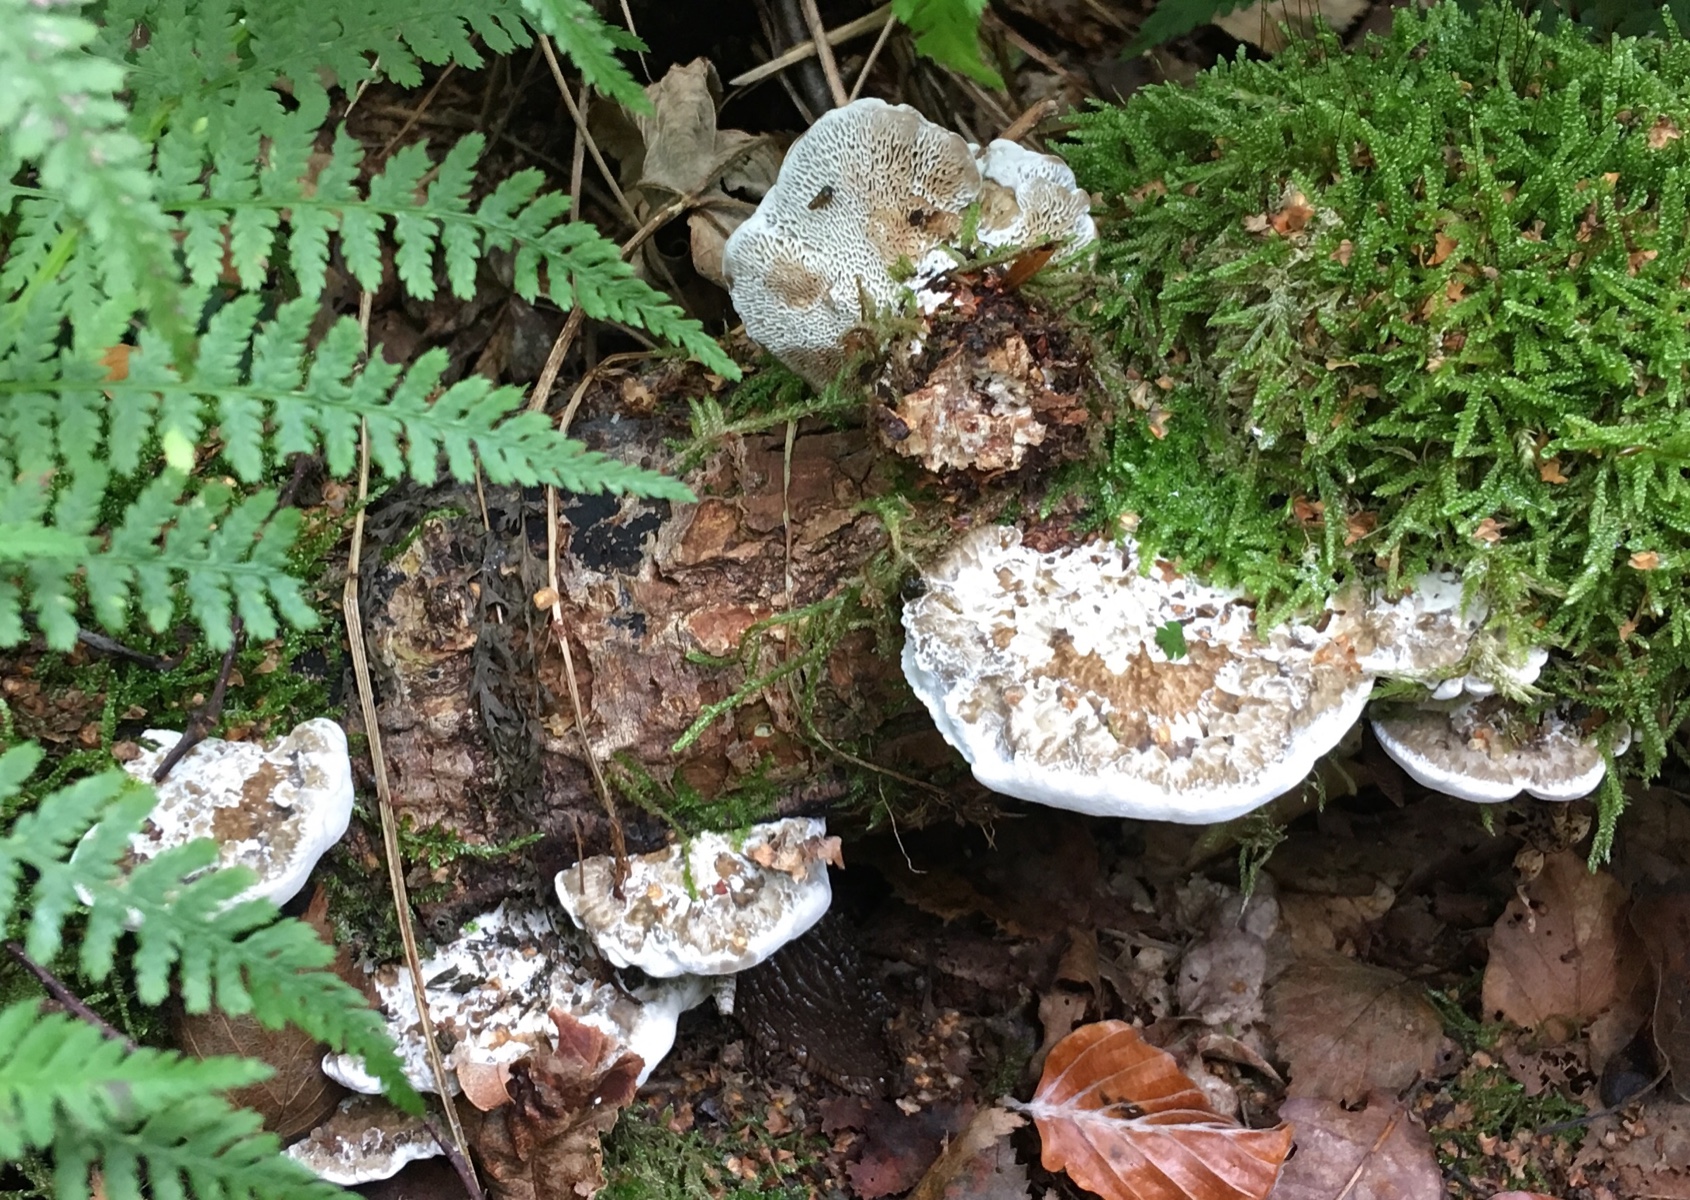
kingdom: Fungi
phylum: Basidiomycota
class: Agaricomycetes
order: Polyporales
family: Polyporaceae
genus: Daedaleopsis
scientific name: Daedaleopsis confragosa
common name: rødmende læderporesvamp
